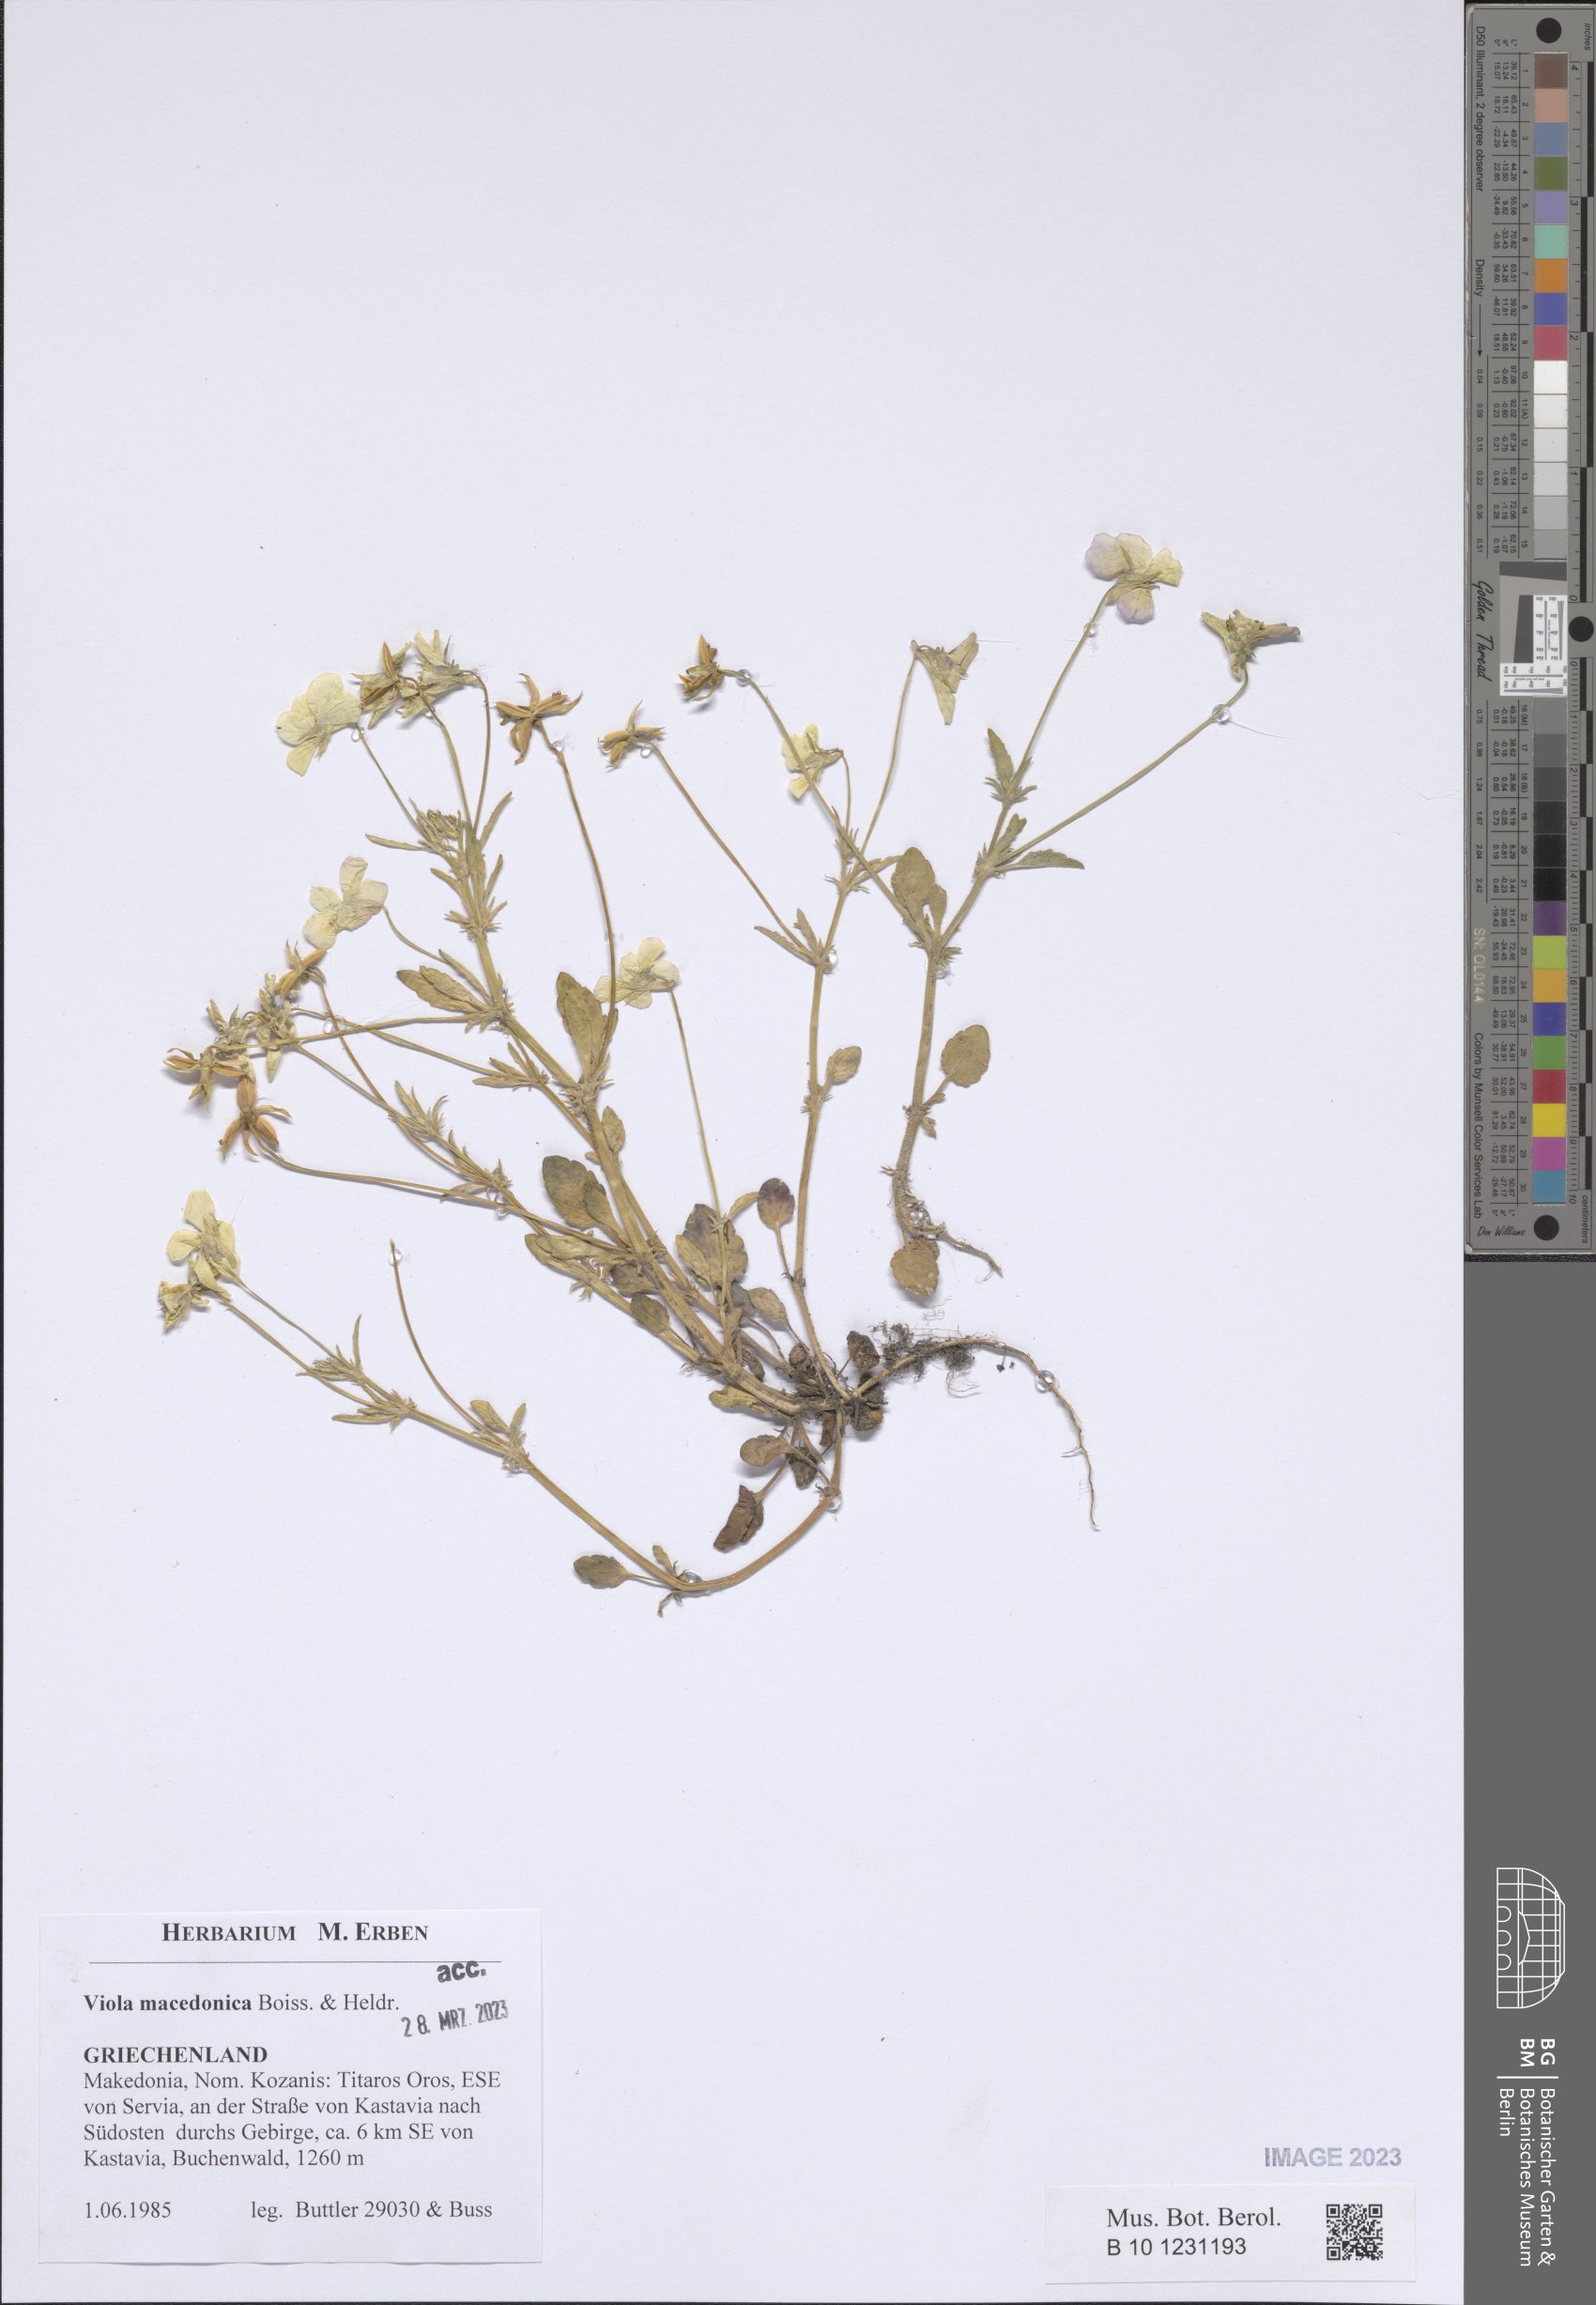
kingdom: Plantae
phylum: Tracheophyta
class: Magnoliopsida
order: Malpighiales
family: Violaceae
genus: Viola
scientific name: Viola tricolor
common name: Pansy
